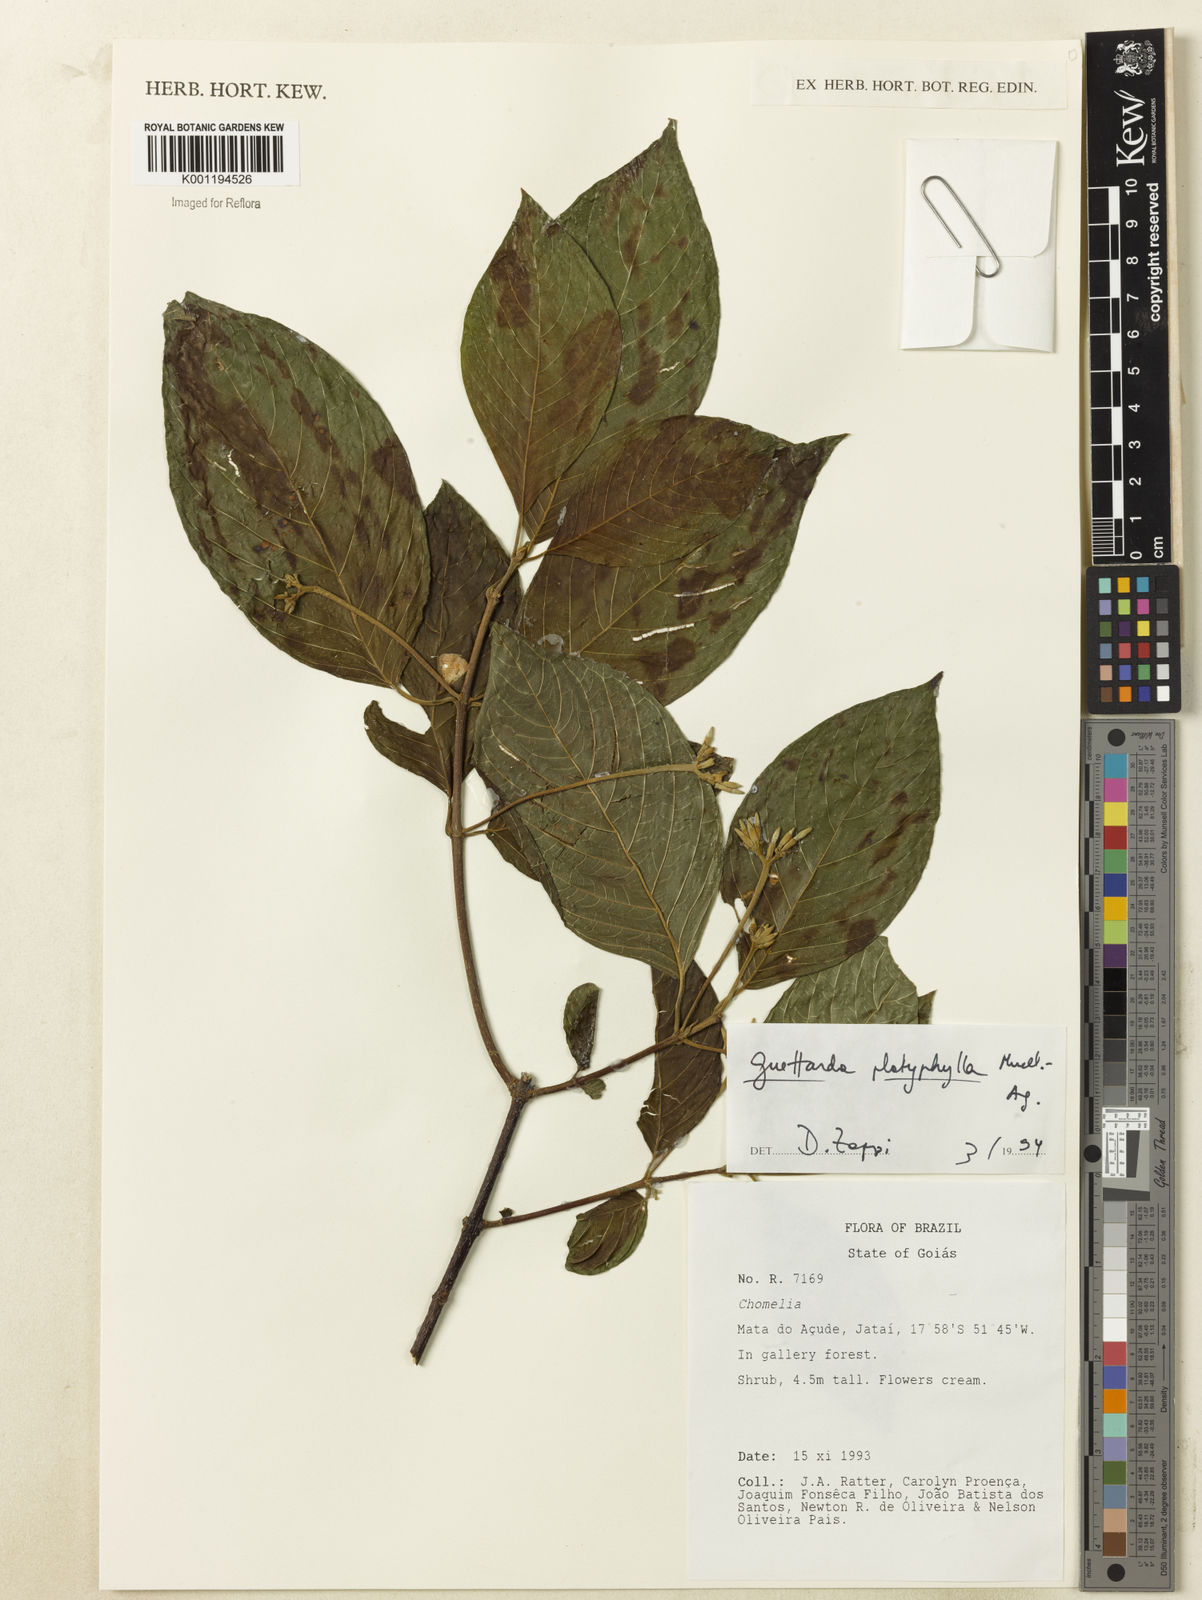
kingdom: Plantae
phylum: Tracheophyta
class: Magnoliopsida
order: Gentianales
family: Rubiaceae
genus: Guettarda
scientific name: Guettarda
